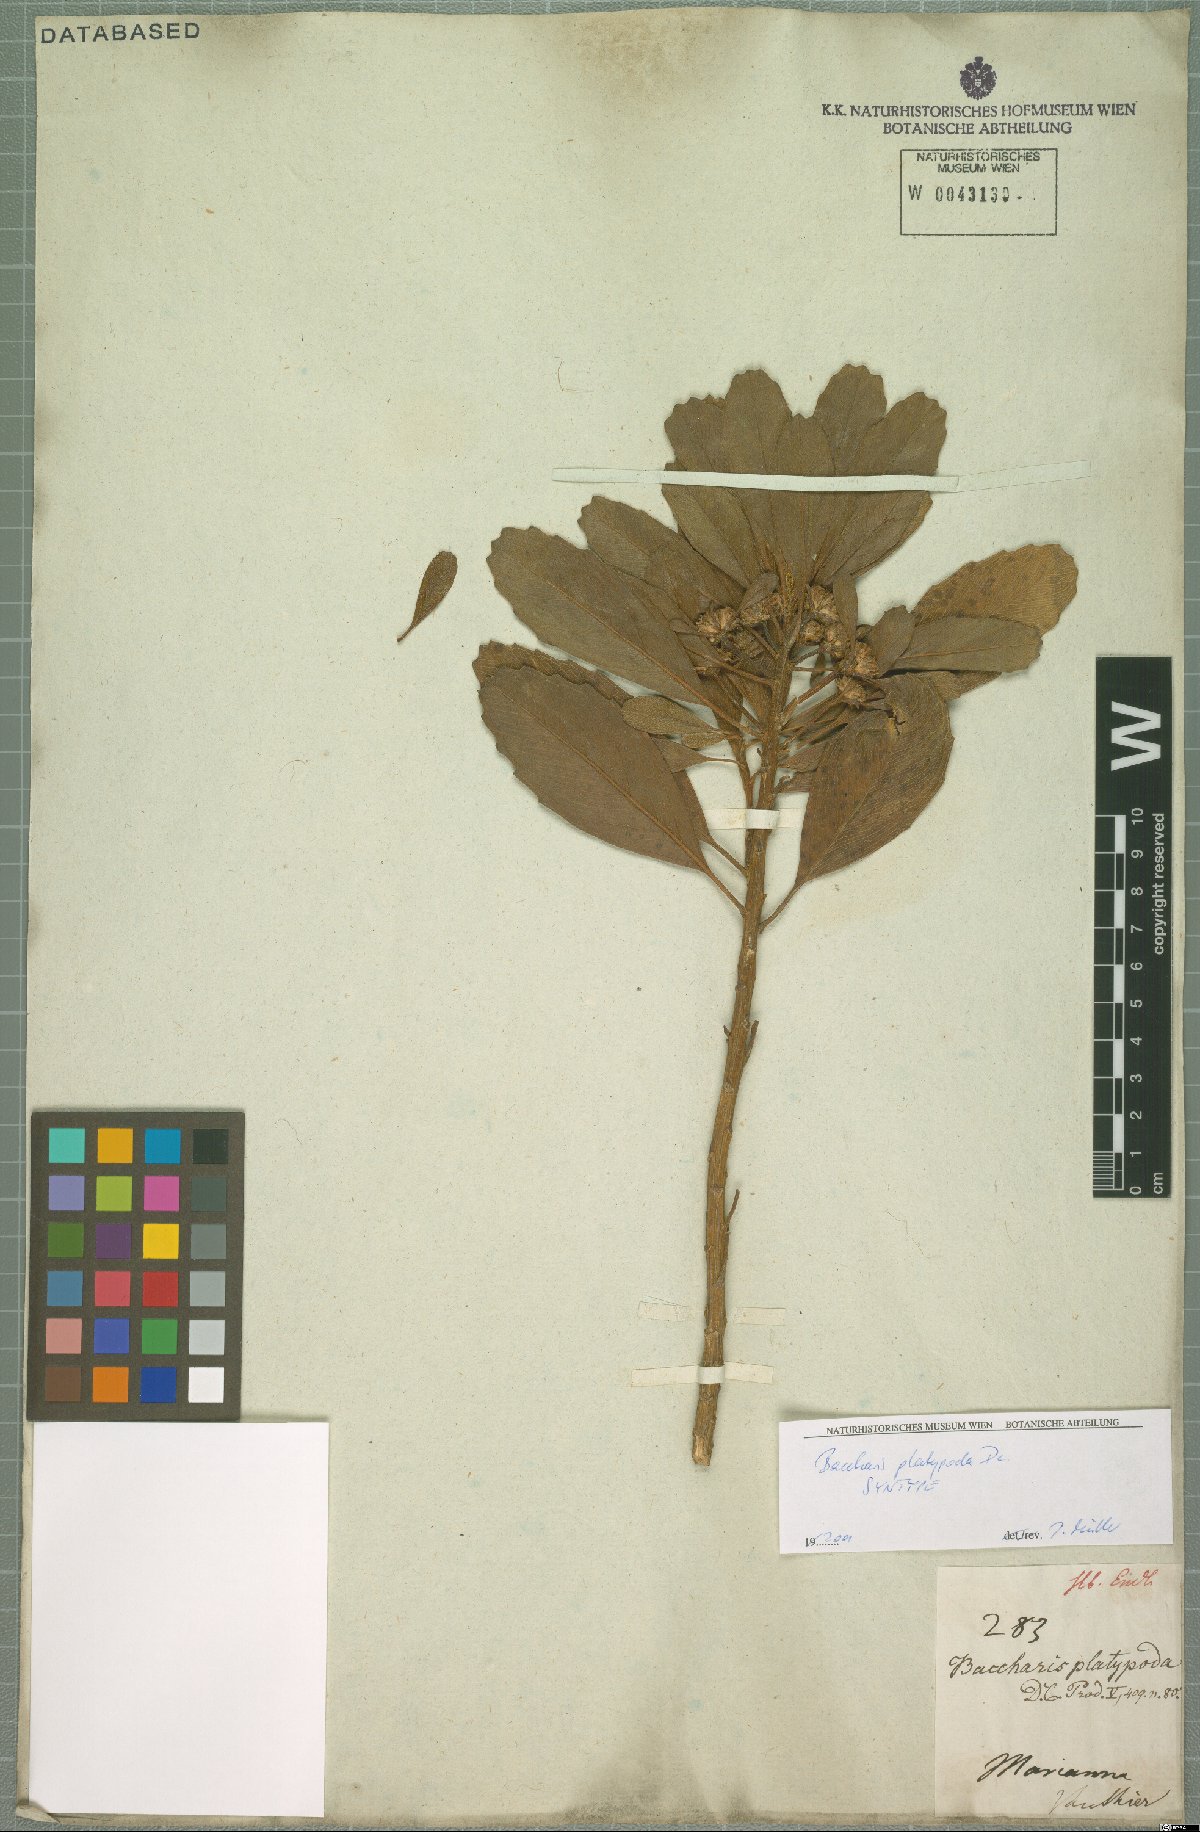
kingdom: Plantae
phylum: Tracheophyta
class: Magnoliopsida
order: Asterales
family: Asteraceae
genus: Baccharis
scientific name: Baccharis platypoda
